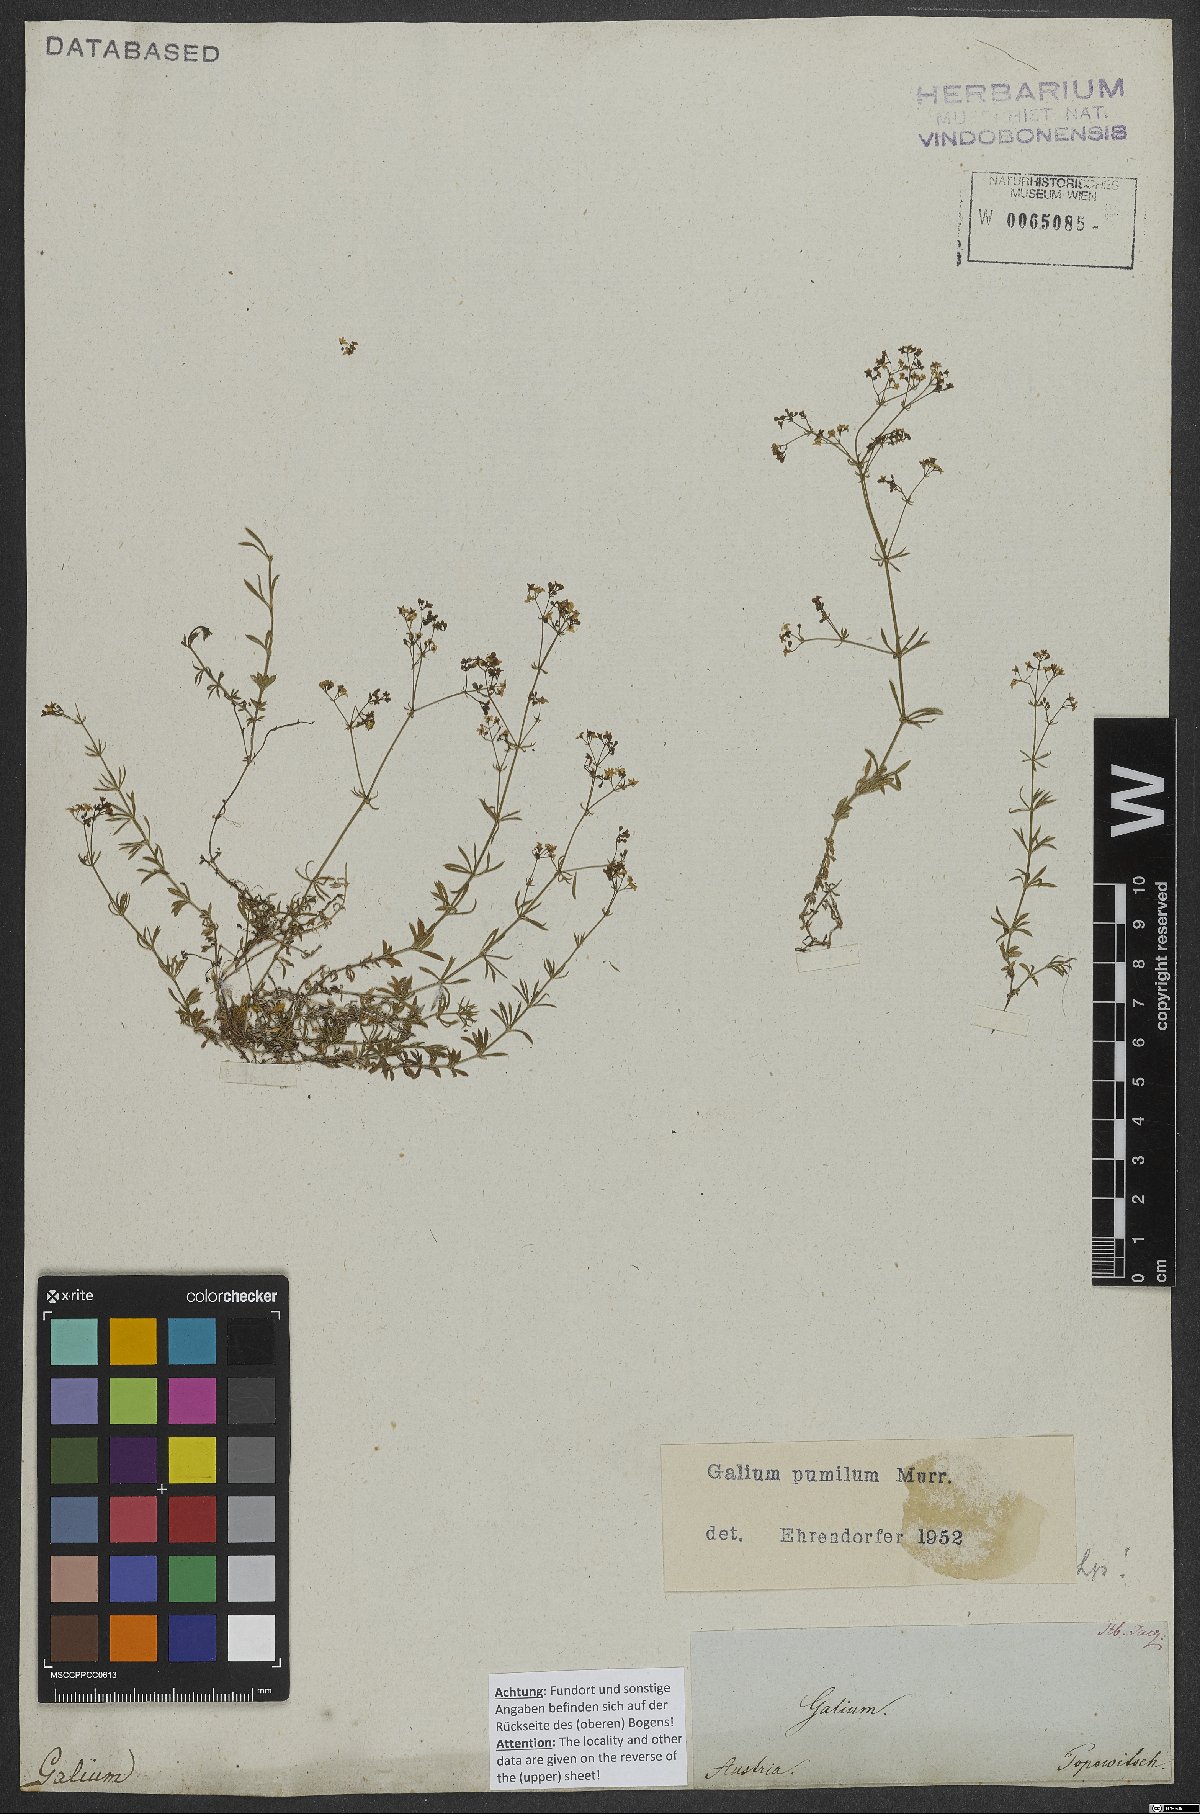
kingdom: Plantae
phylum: Tracheophyta
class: Magnoliopsida
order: Gentianales
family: Rubiaceae
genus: Galium
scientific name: Galium pumilum
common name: Slender bedstraw
